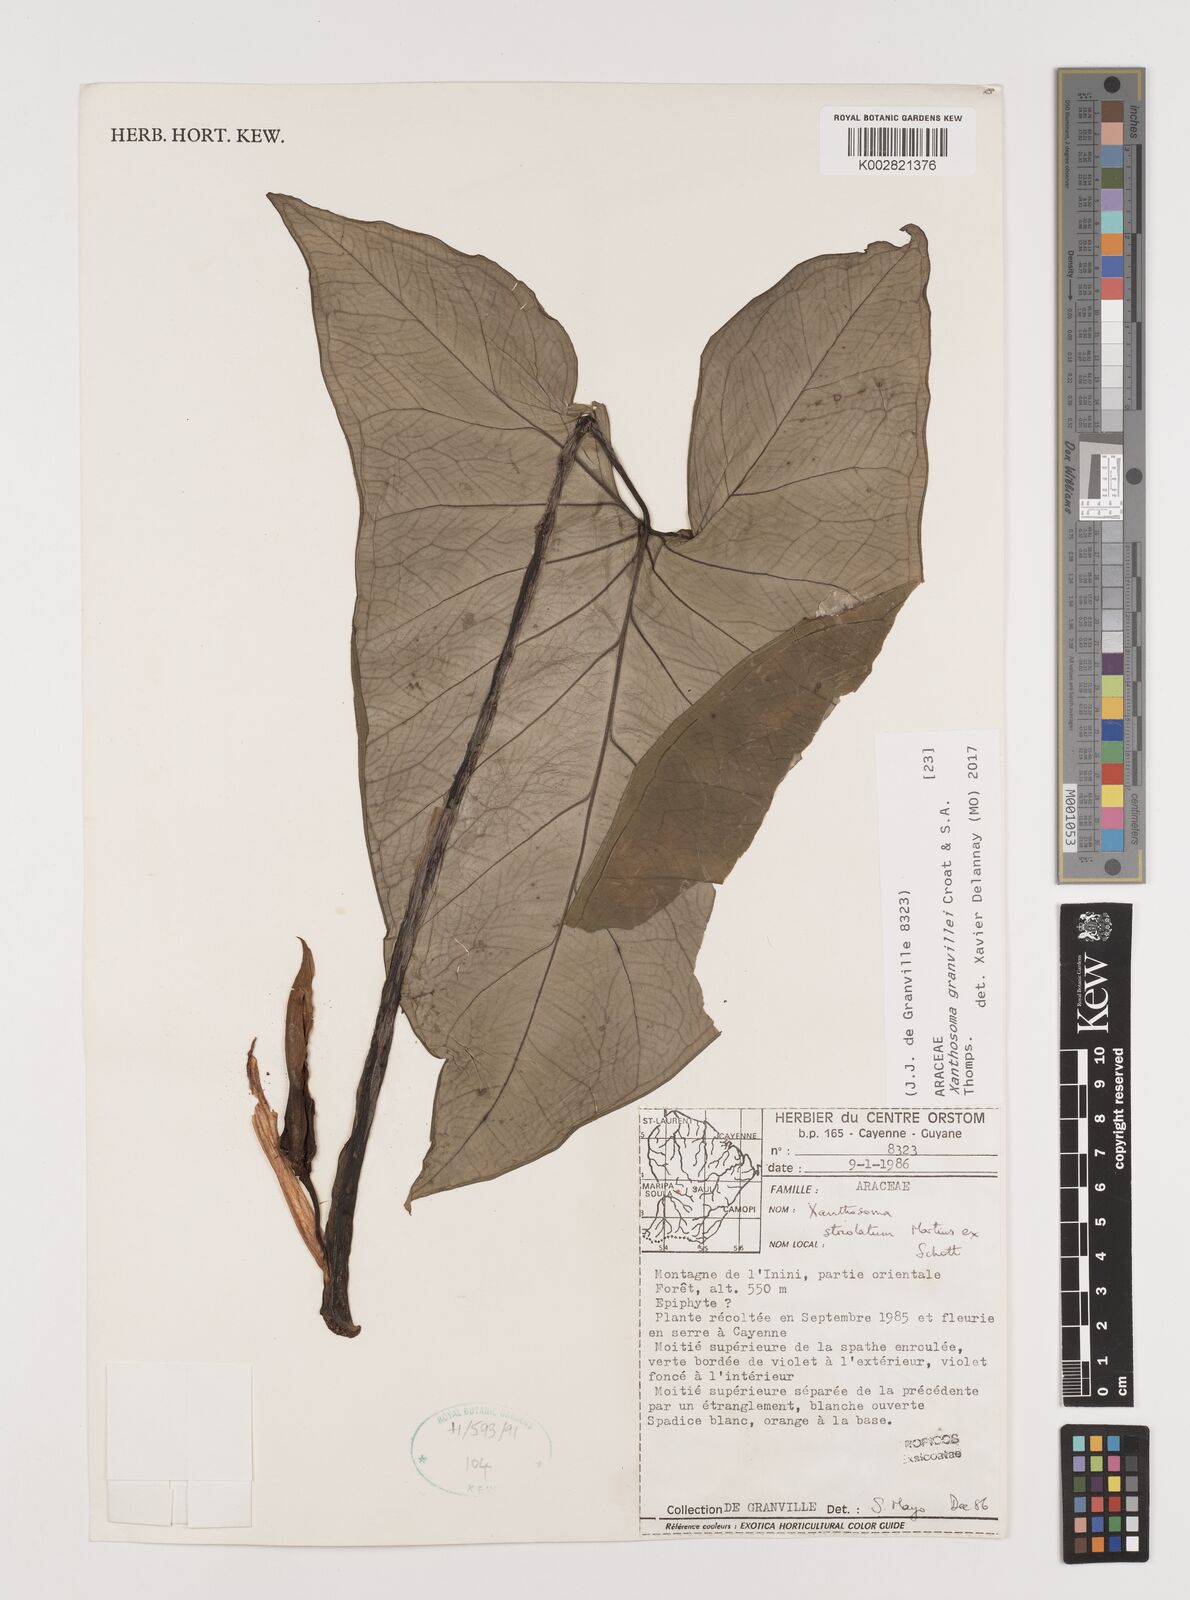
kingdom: Plantae
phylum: Tracheophyta
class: Liliopsida
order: Alismatales
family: Araceae
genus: Xanthosoma
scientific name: Xanthosoma granvillei
